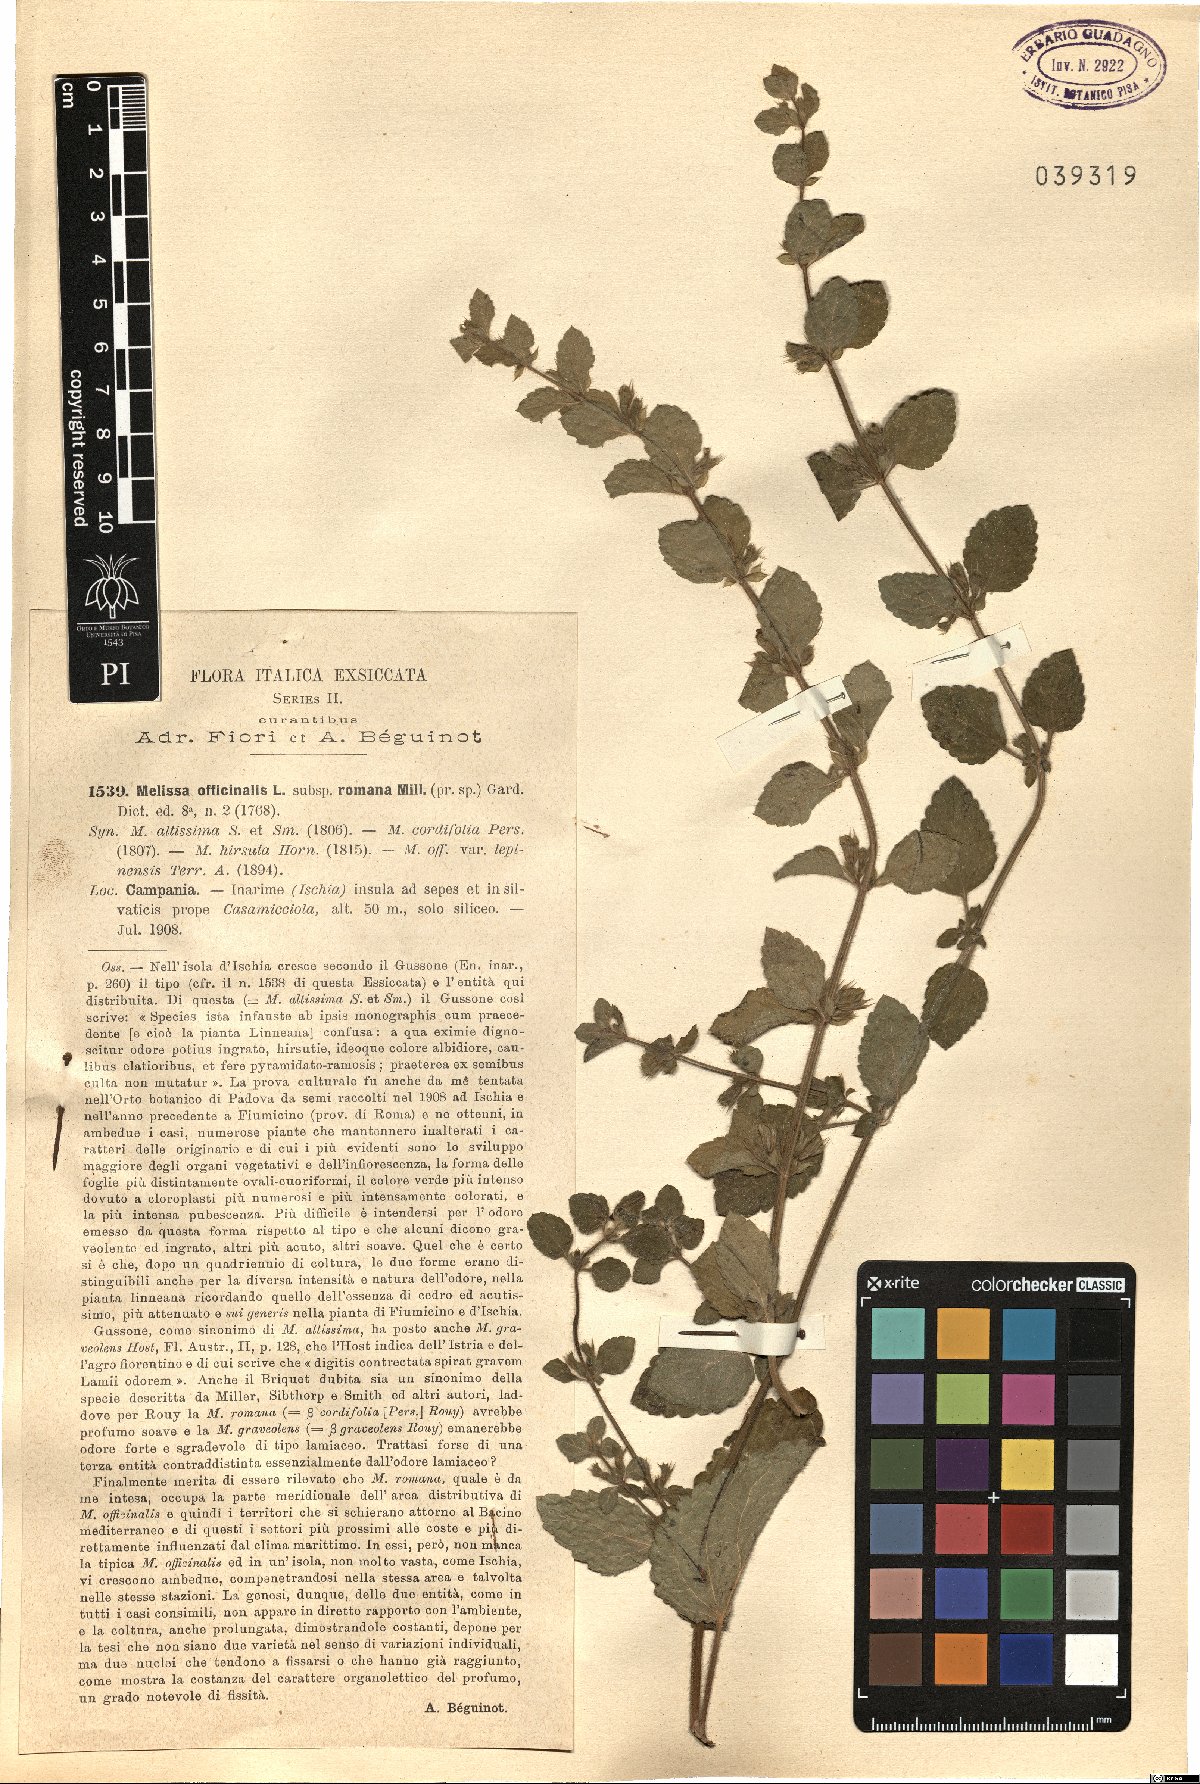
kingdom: Plantae
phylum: Tracheophyta
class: Magnoliopsida
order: Lamiales
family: Lamiaceae
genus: Melissa
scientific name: Melissa officinalis
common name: Balm
